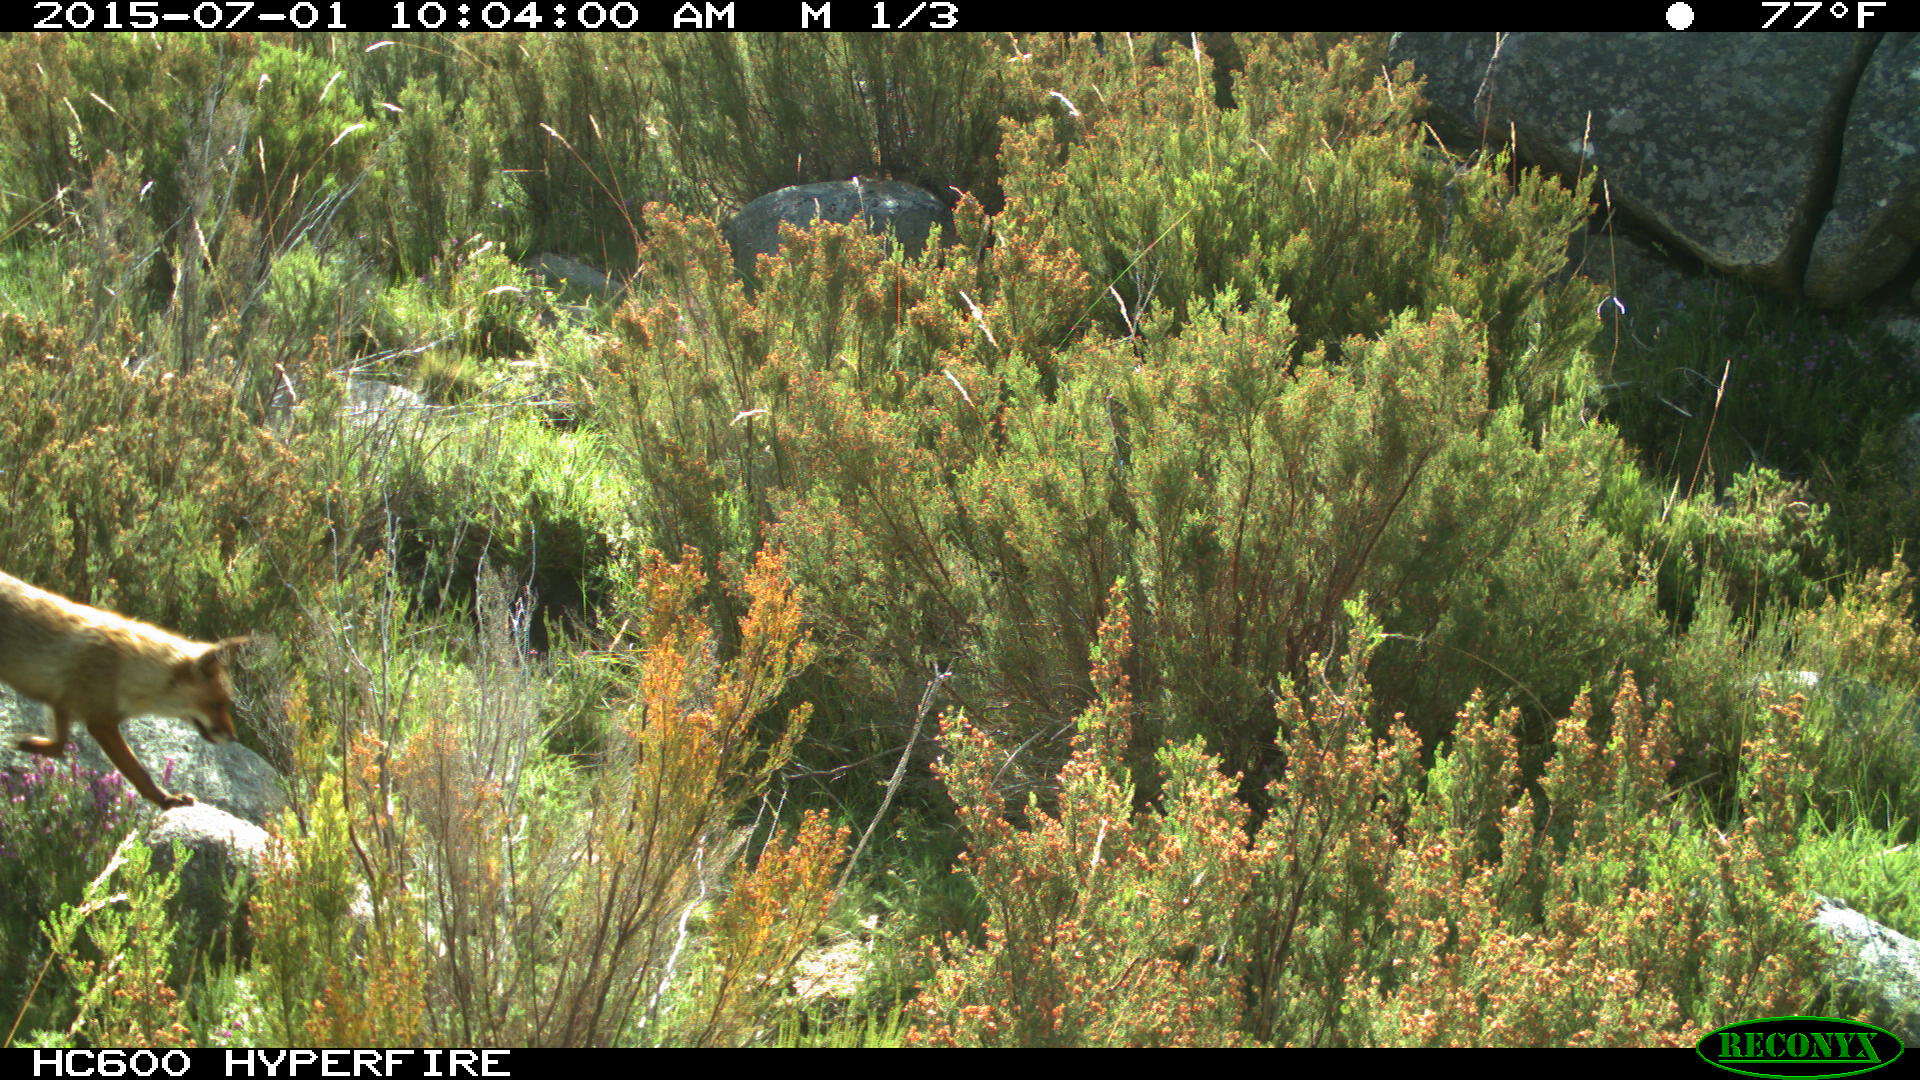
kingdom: Animalia
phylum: Chordata
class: Mammalia
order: Carnivora
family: Canidae
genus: Vulpes
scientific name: Vulpes vulpes
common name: Red fox
